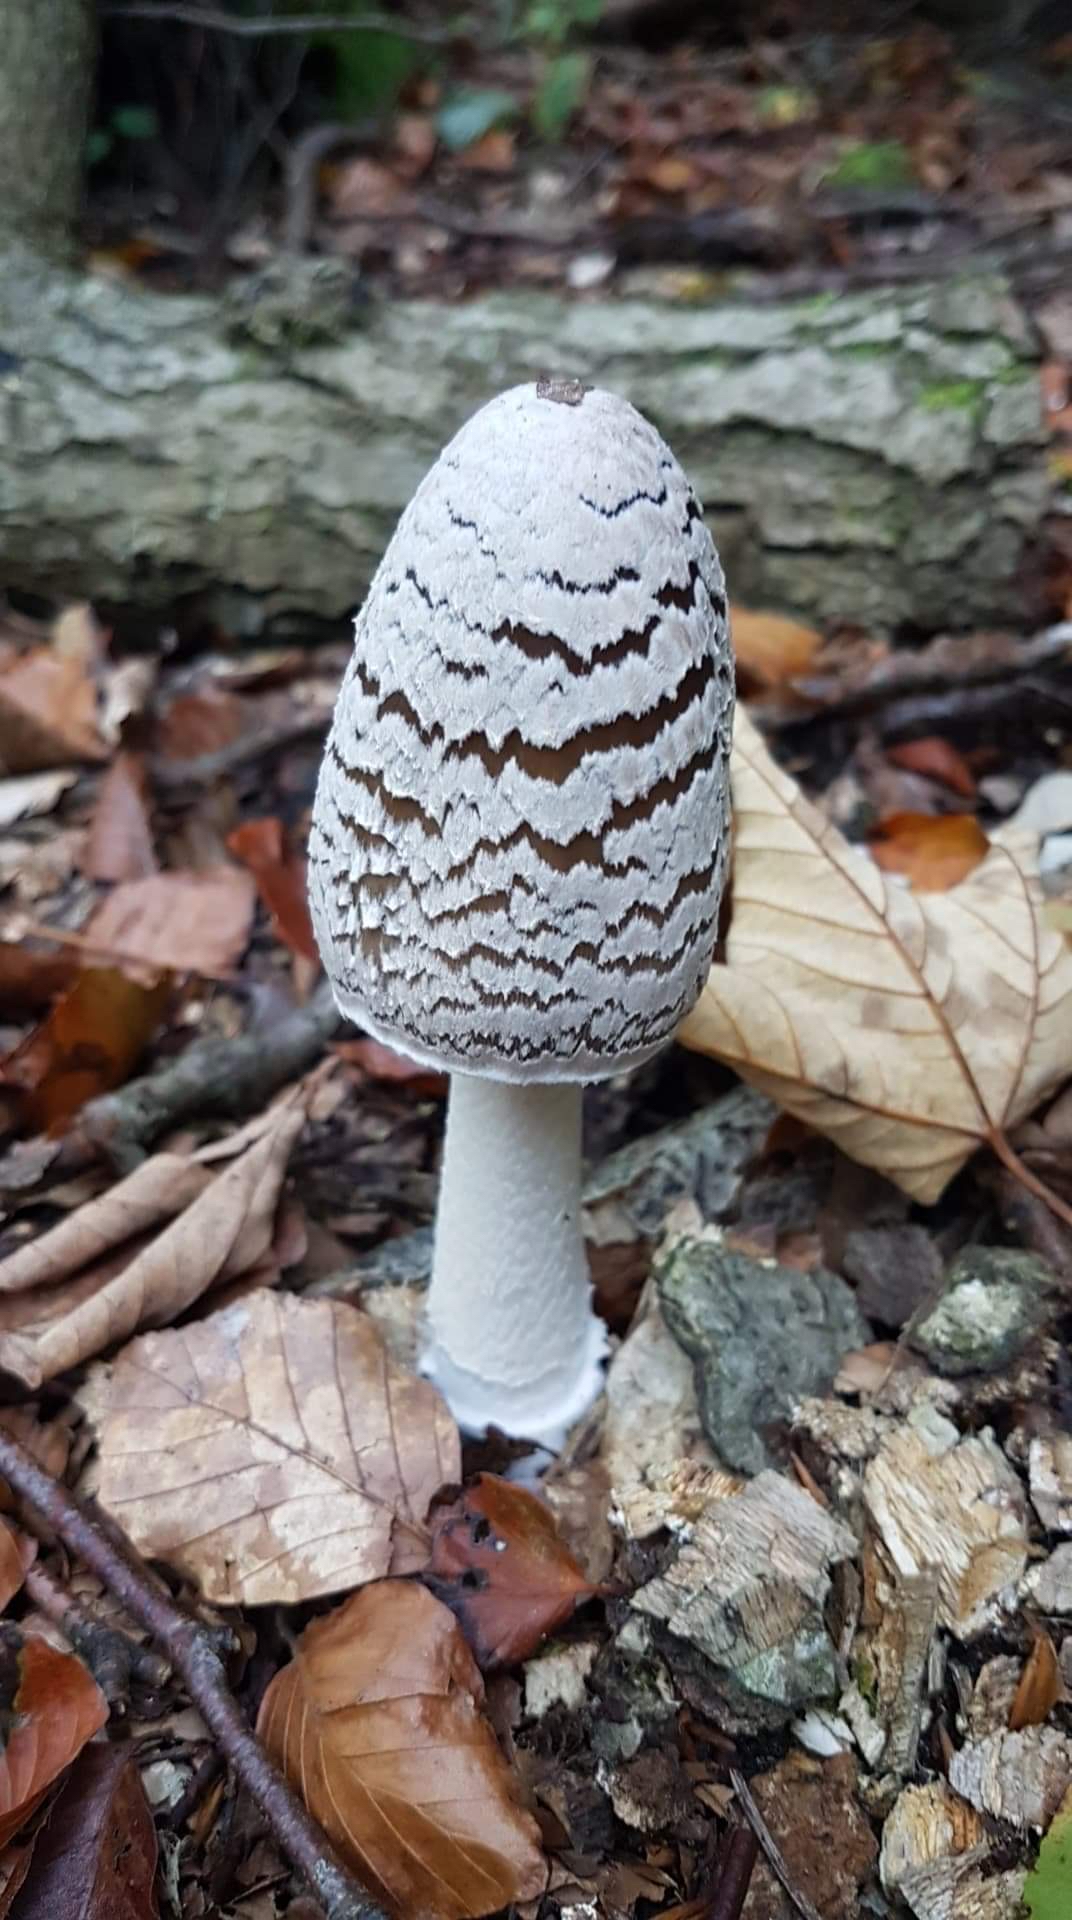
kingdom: Fungi
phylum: Basidiomycota
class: Agaricomycetes
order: Agaricales
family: Psathyrellaceae
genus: Coprinopsis
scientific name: Coprinopsis picacea
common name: skade-blækhat
